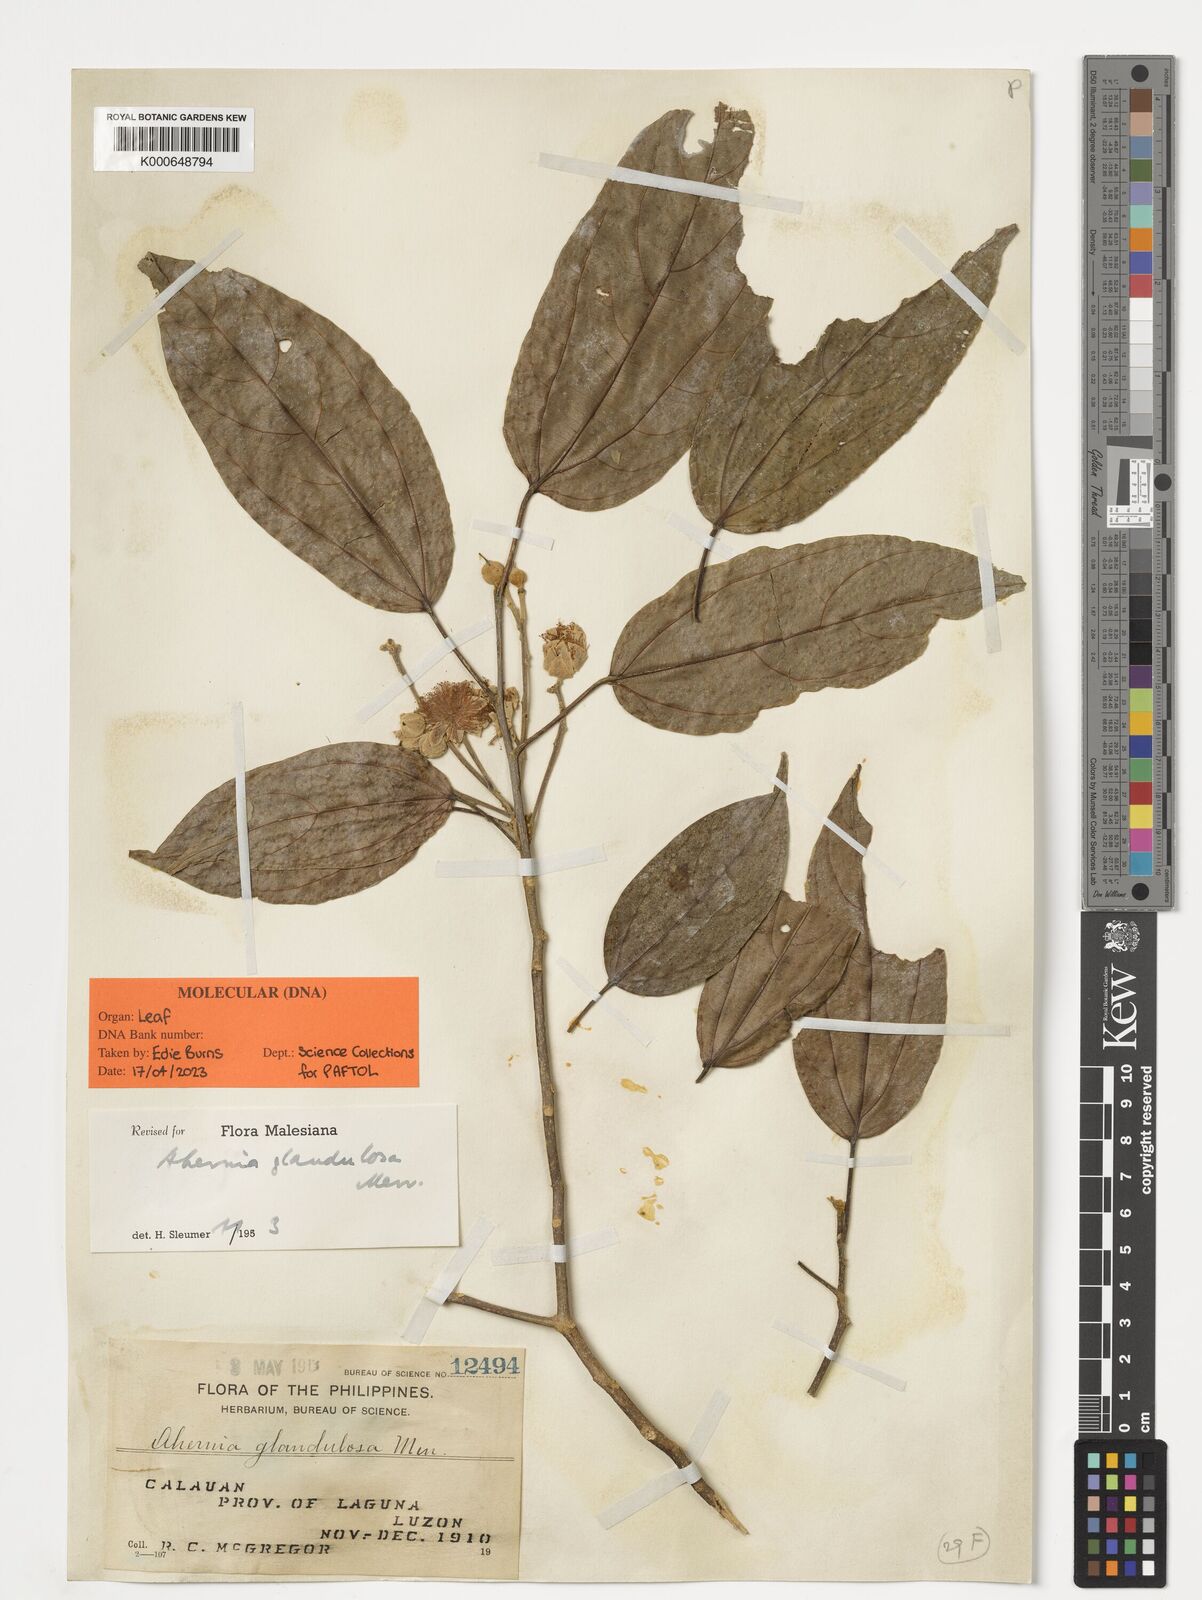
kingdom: Plantae
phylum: Tracheophyta
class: Magnoliopsida
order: Malpighiales
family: Achariaceae
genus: Ahernia
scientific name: Ahernia glandulosa
